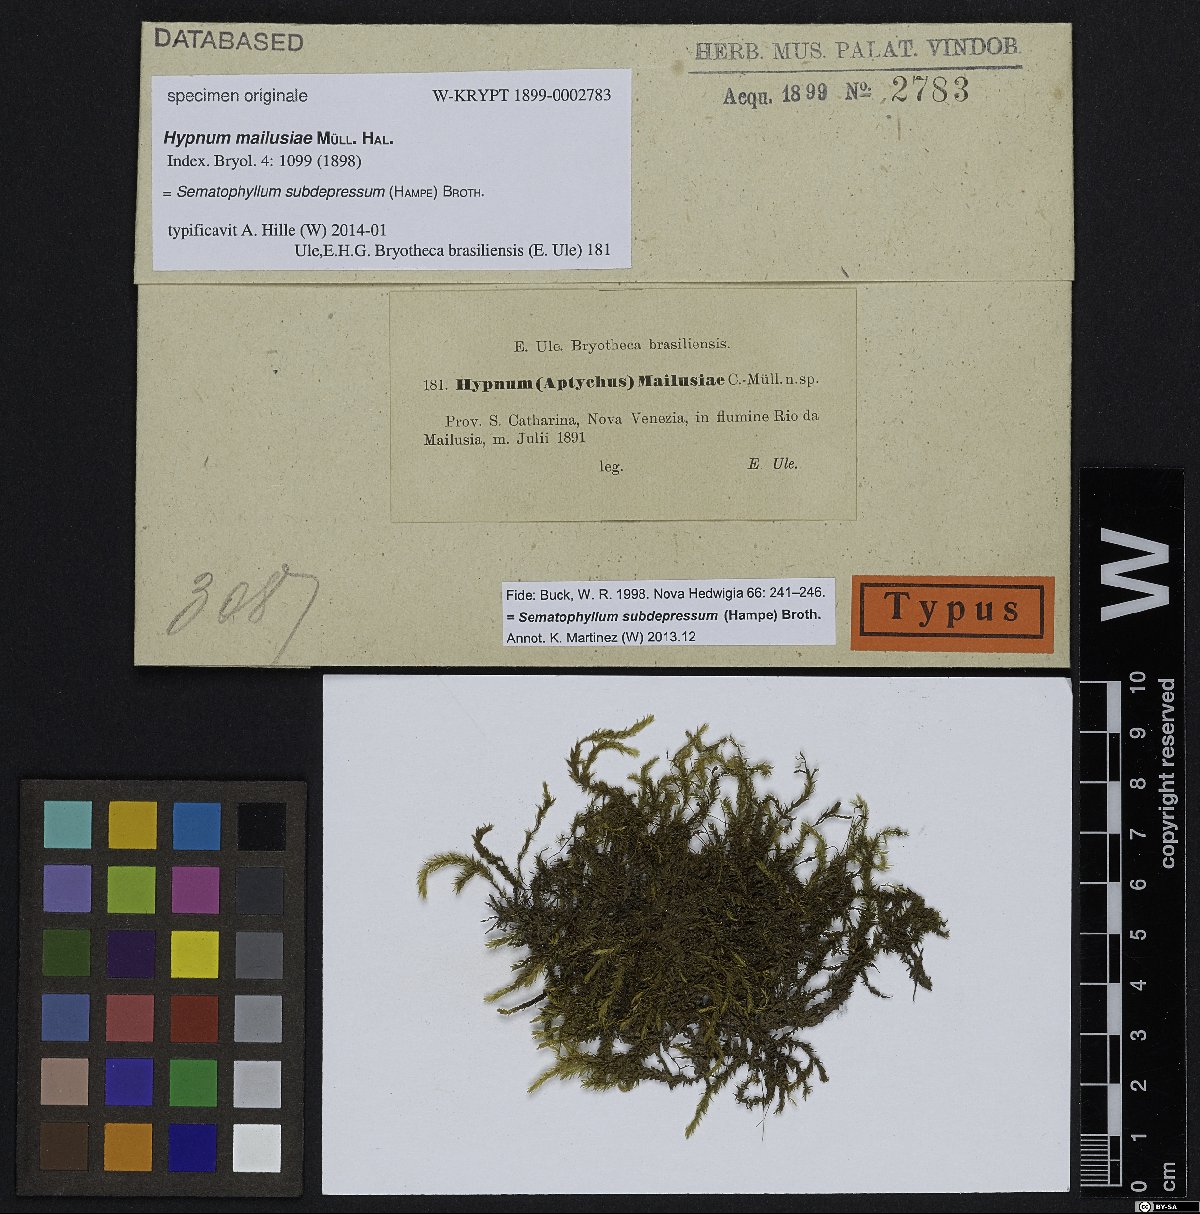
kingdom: Plantae
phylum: Bryophyta
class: Bryopsida
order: Hypnales
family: Hypnaceae
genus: Hypnum
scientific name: Hypnum
